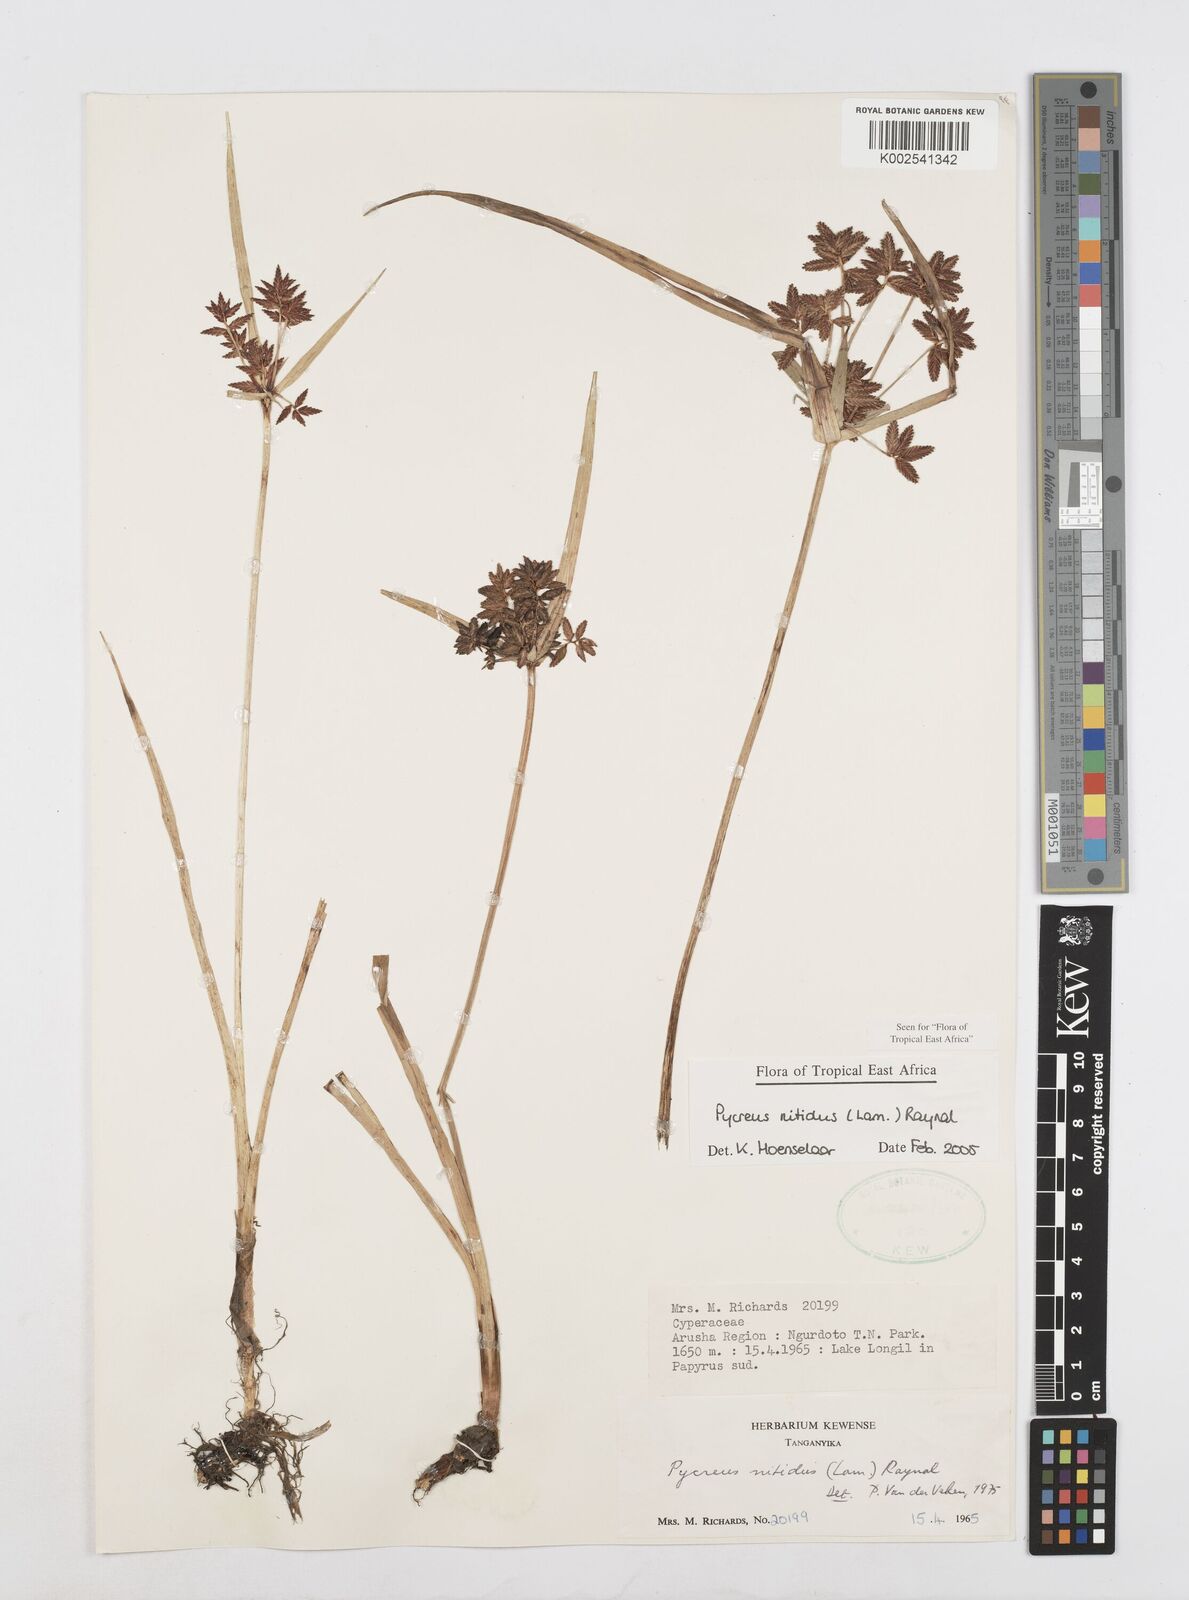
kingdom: Plantae
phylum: Tracheophyta
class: Liliopsida
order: Poales
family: Cyperaceae
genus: Cyperus
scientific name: Cyperus nitidus
